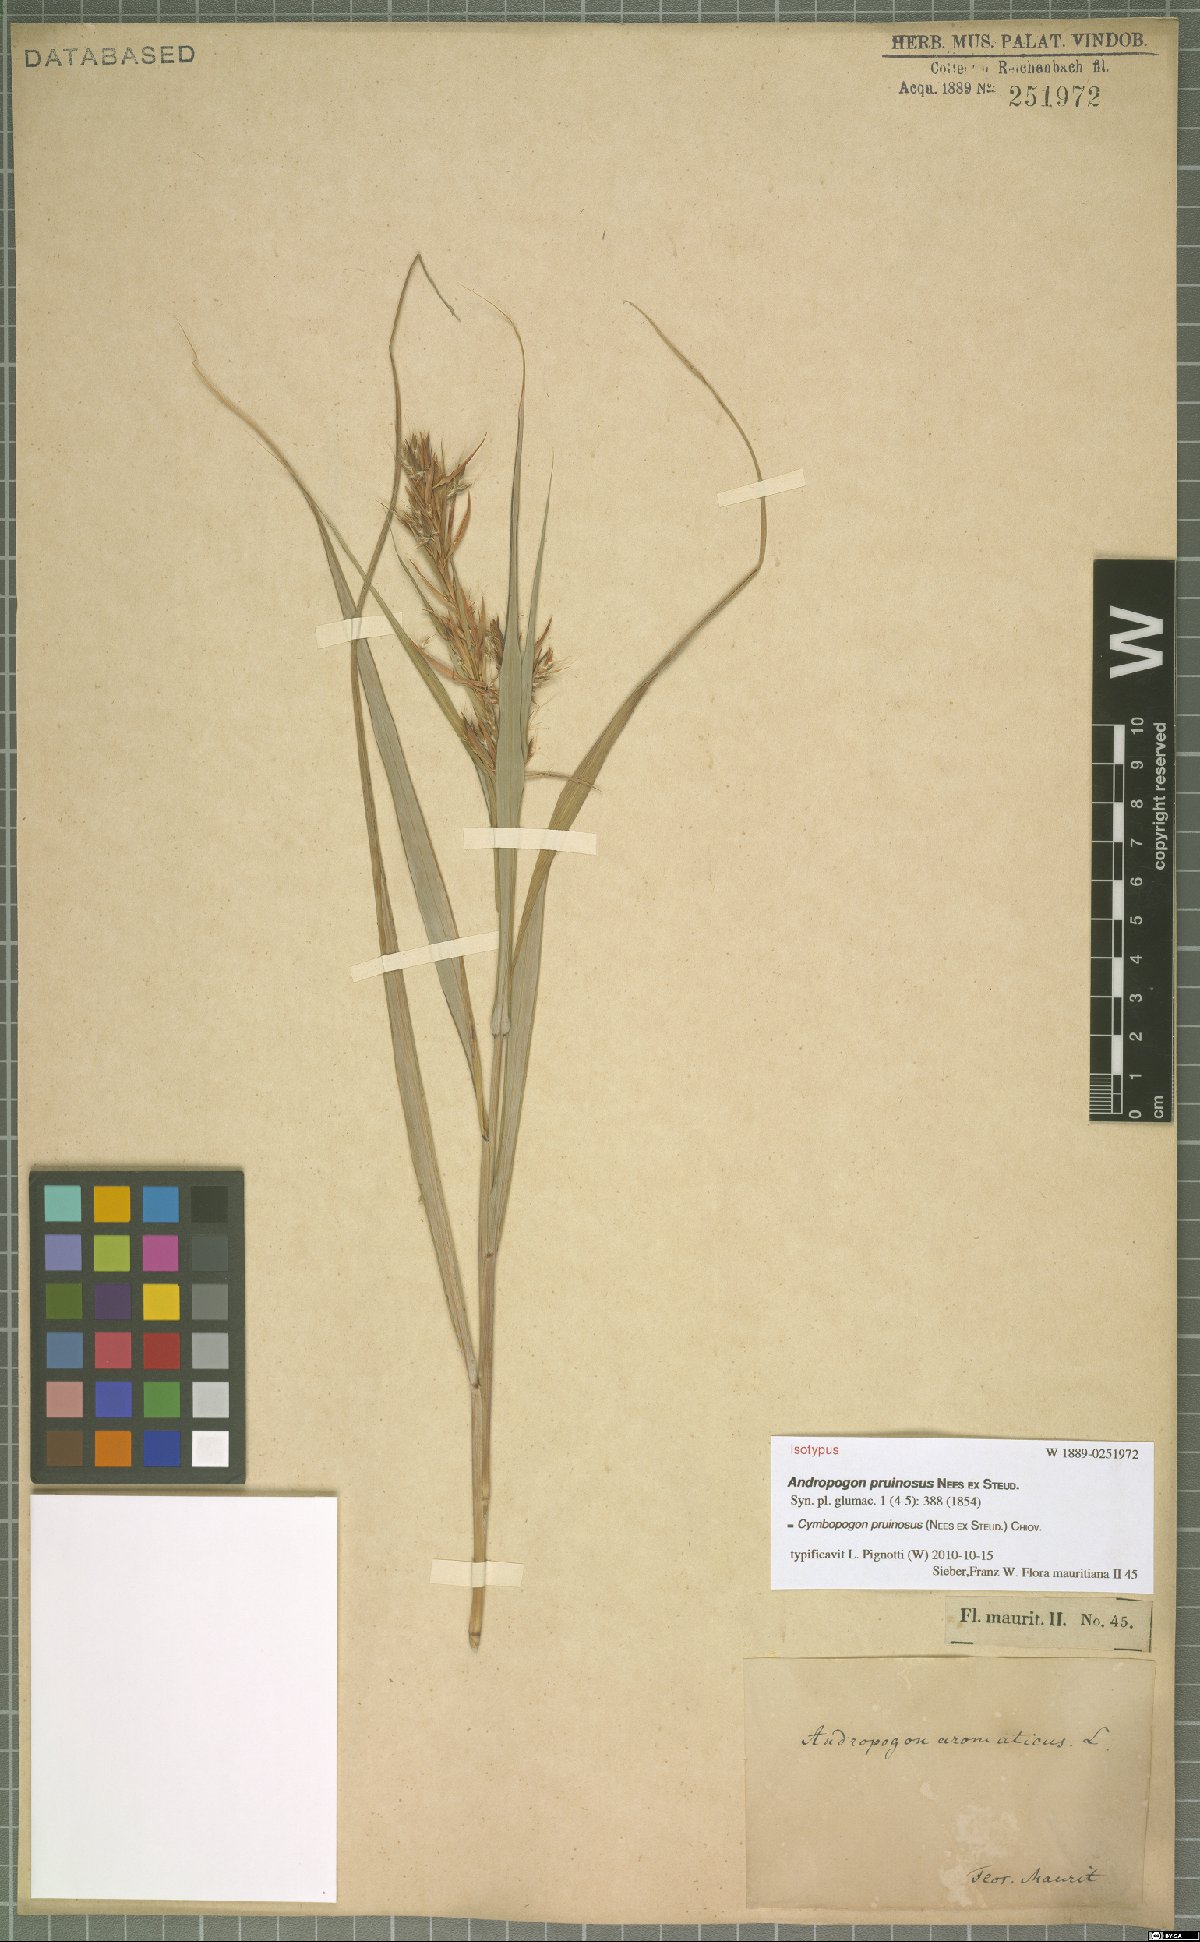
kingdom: Plantae
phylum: Tracheophyta
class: Liliopsida
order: Poales
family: Poaceae
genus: Cymbopogon
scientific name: Cymbopogon pruinosus
